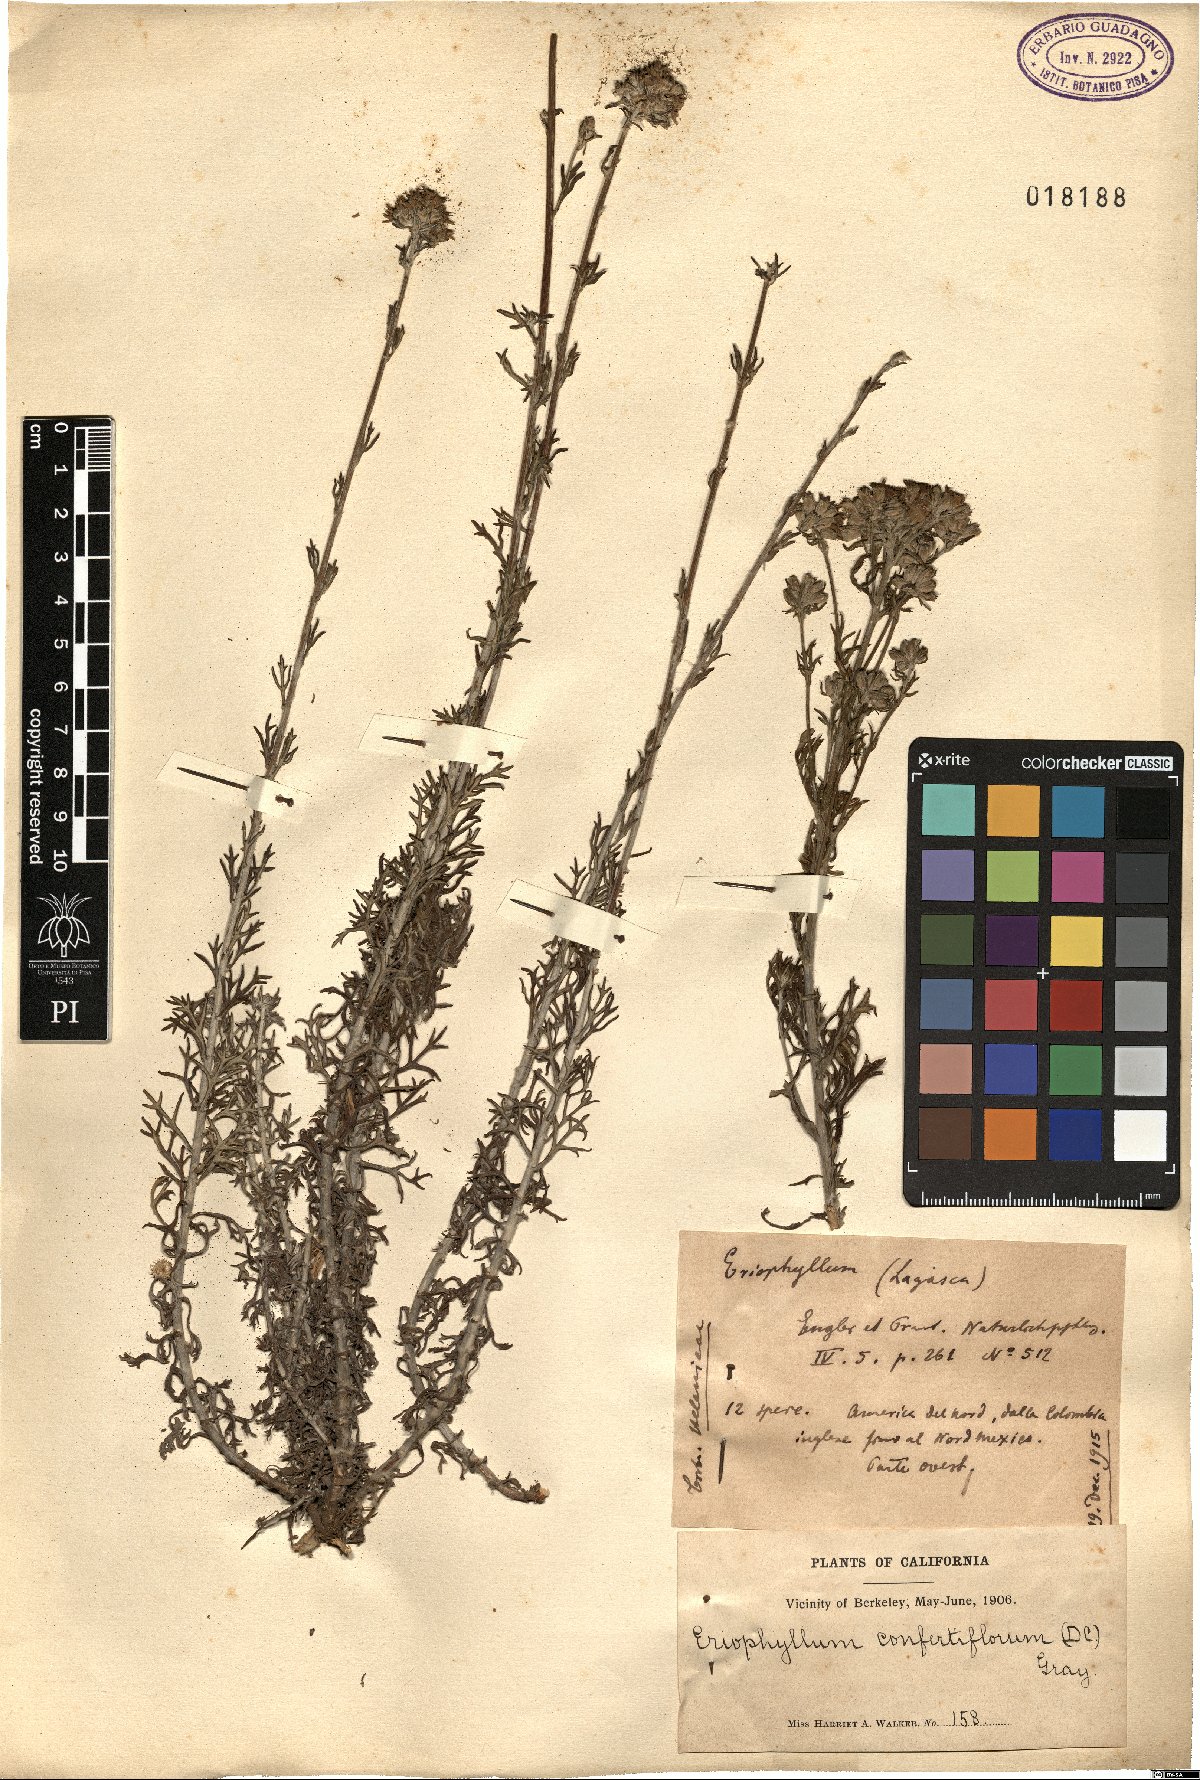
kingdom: Plantae
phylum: Tracheophyta
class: Magnoliopsida
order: Asterales
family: Asteraceae
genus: Eriophyllum
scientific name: Eriophyllum confertiflorum
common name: Golden-yarrow
